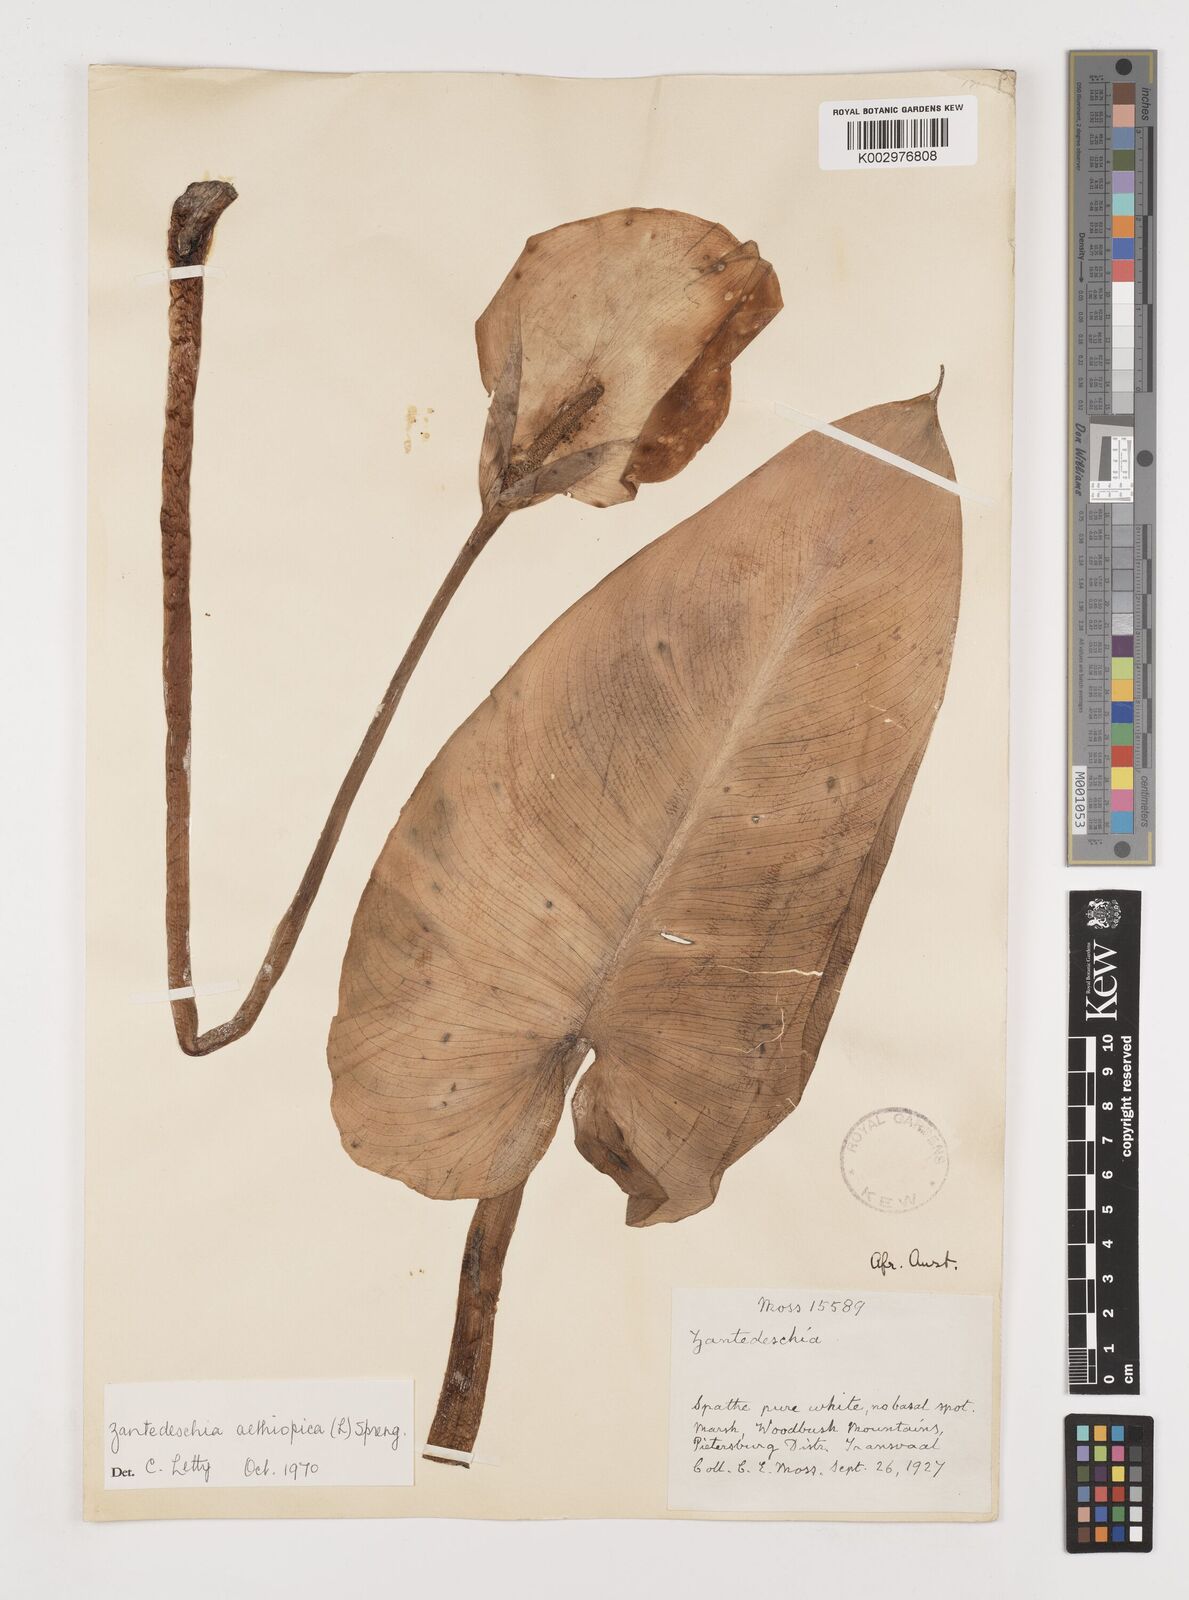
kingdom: Plantae
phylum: Tracheophyta
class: Liliopsida
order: Alismatales
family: Araceae
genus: Zantedeschia
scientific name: Zantedeschia aethiopica
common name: Altar-lily
